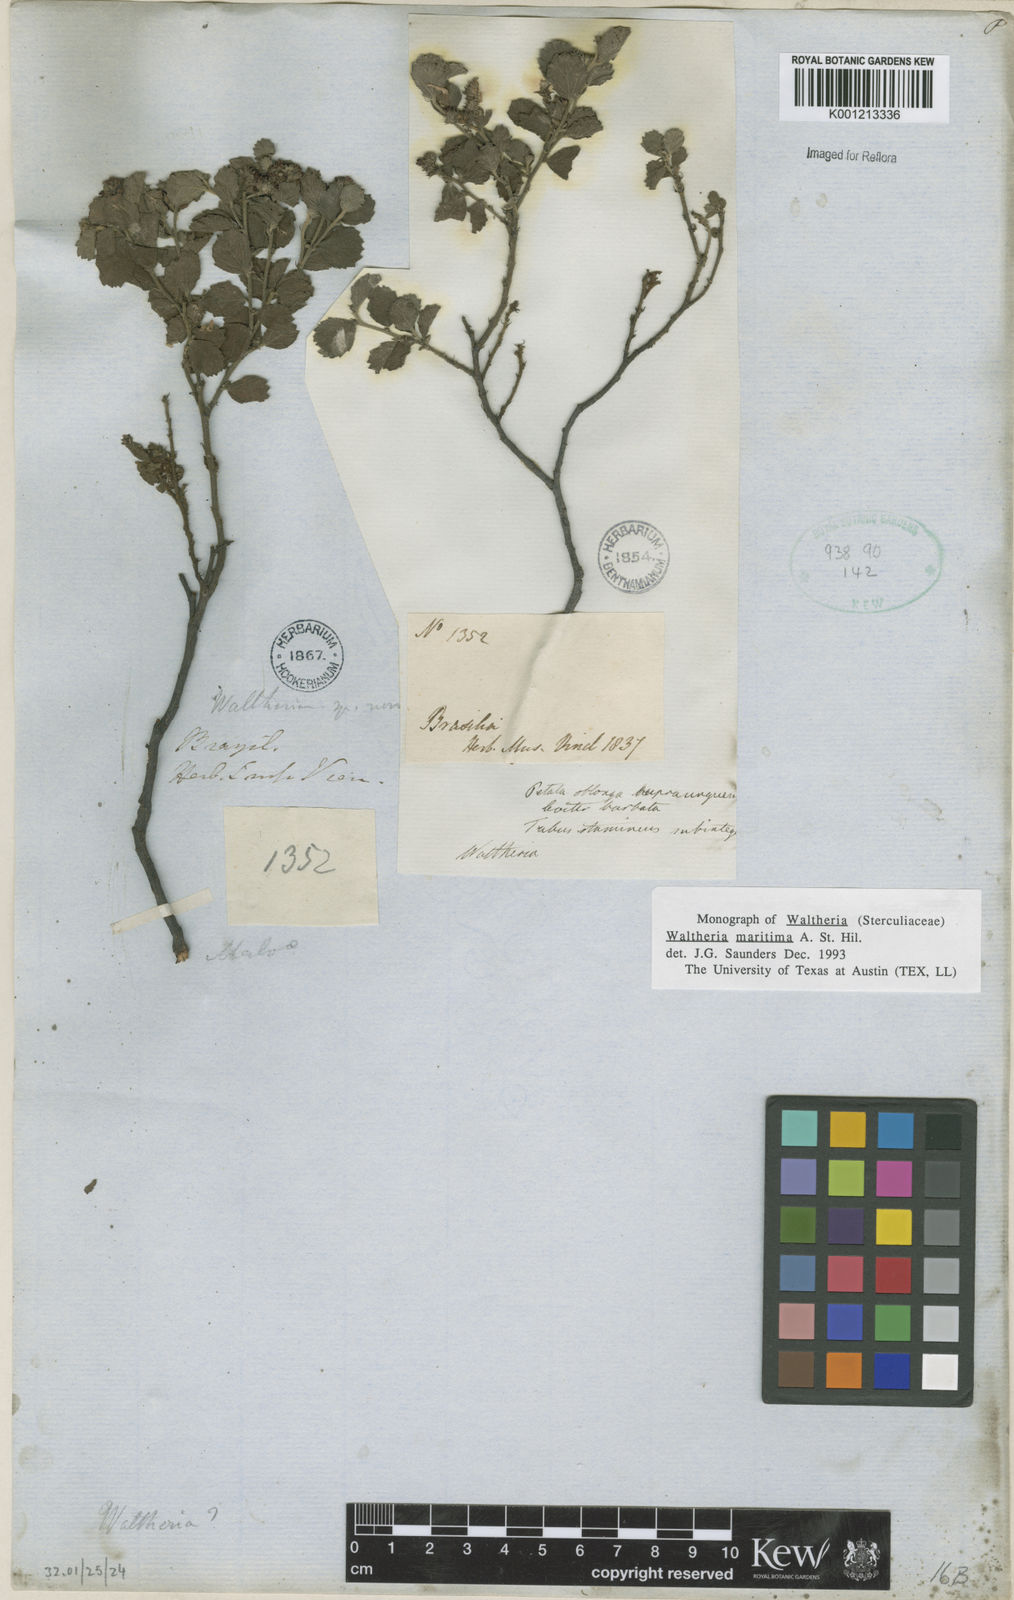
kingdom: Plantae
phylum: Tracheophyta
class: Magnoliopsida
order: Malvales
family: Malvaceae
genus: Waltheria
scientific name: Waltheria maritima
